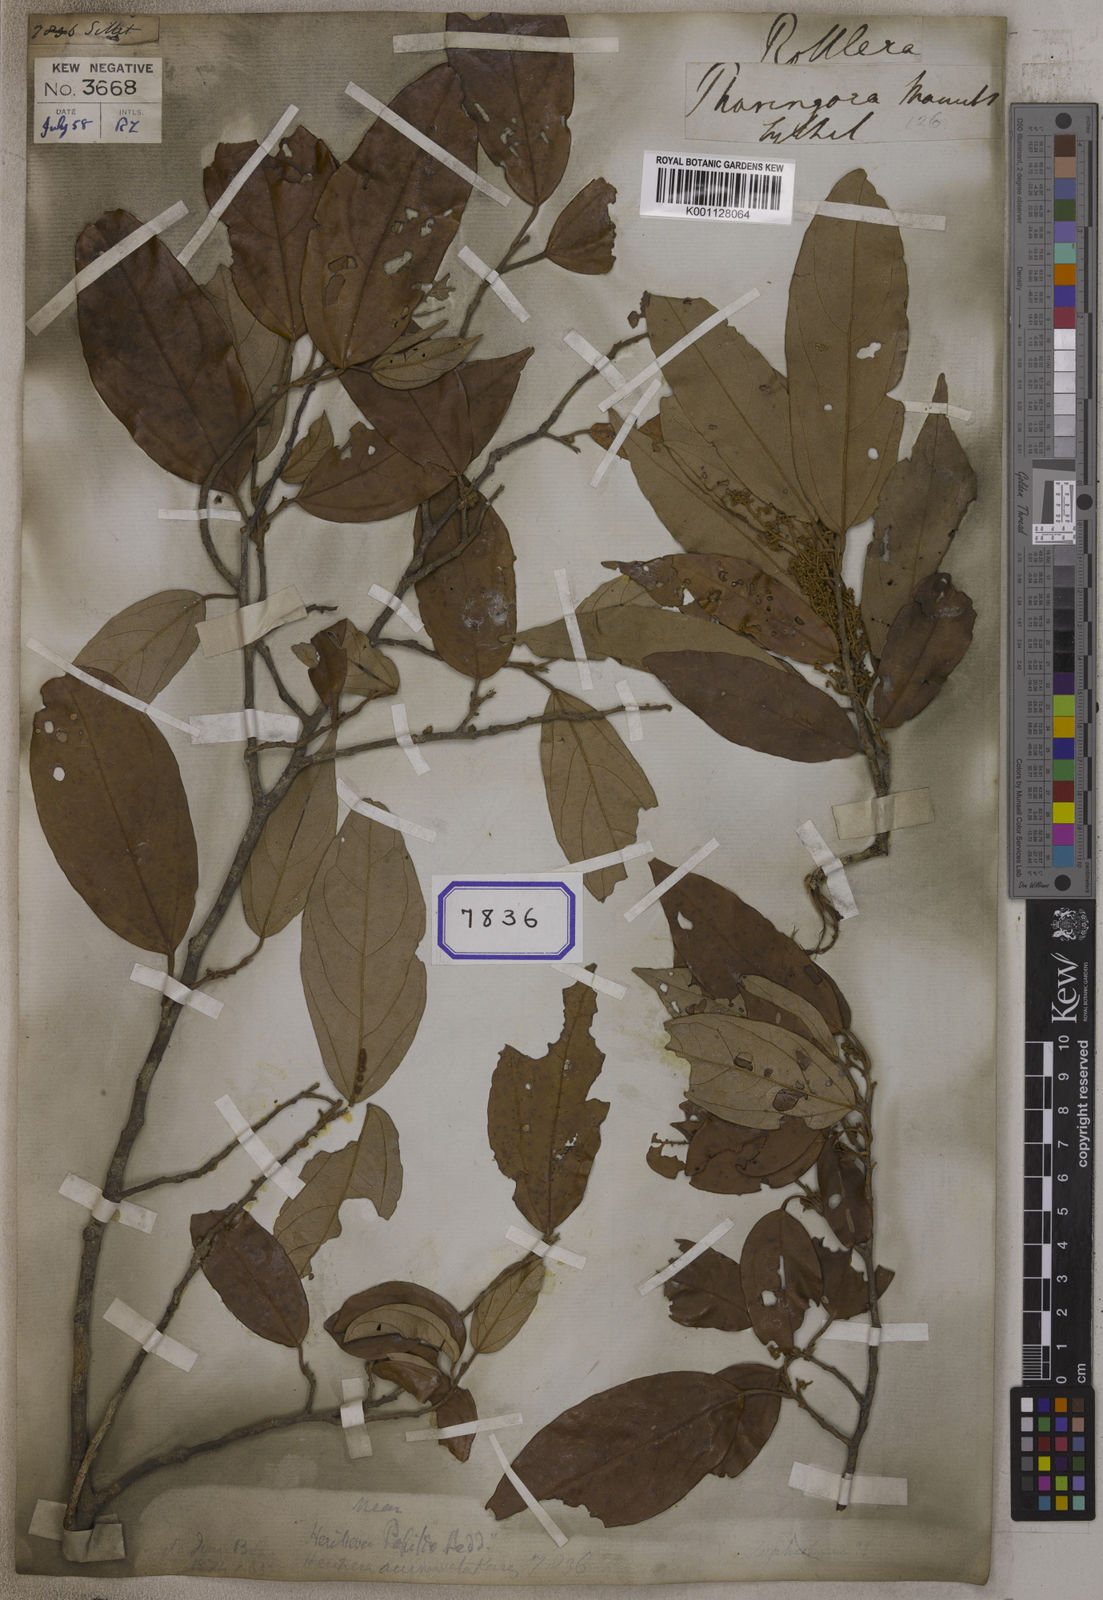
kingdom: Plantae
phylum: Tracheophyta
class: Magnoliopsida
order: Malpighiales
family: Euphorbiaceae
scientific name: Euphorbiaceae
